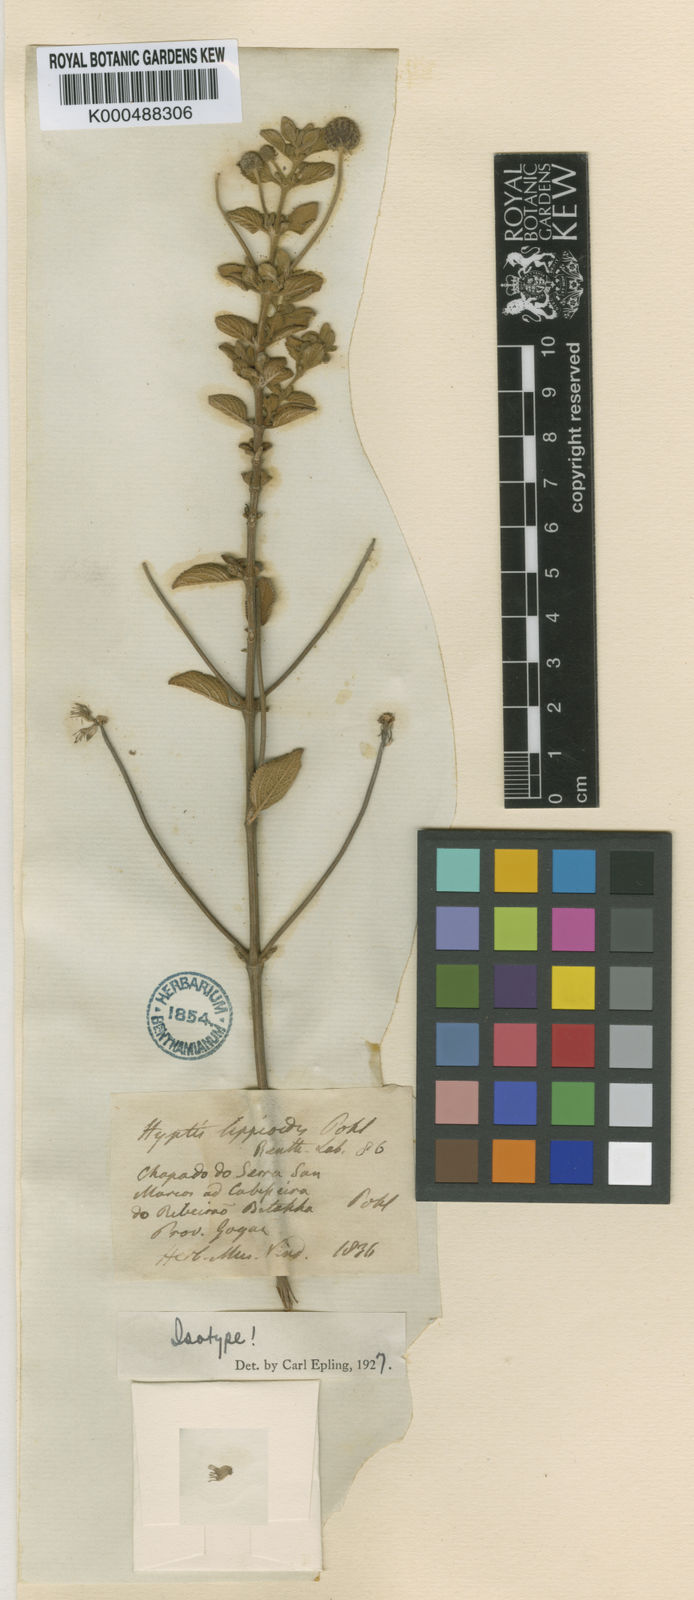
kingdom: Plantae
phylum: Tracheophyta
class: Magnoliopsida
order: Lamiales
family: Lamiaceae
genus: Cyanocephalus
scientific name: Cyanocephalus lippioides
